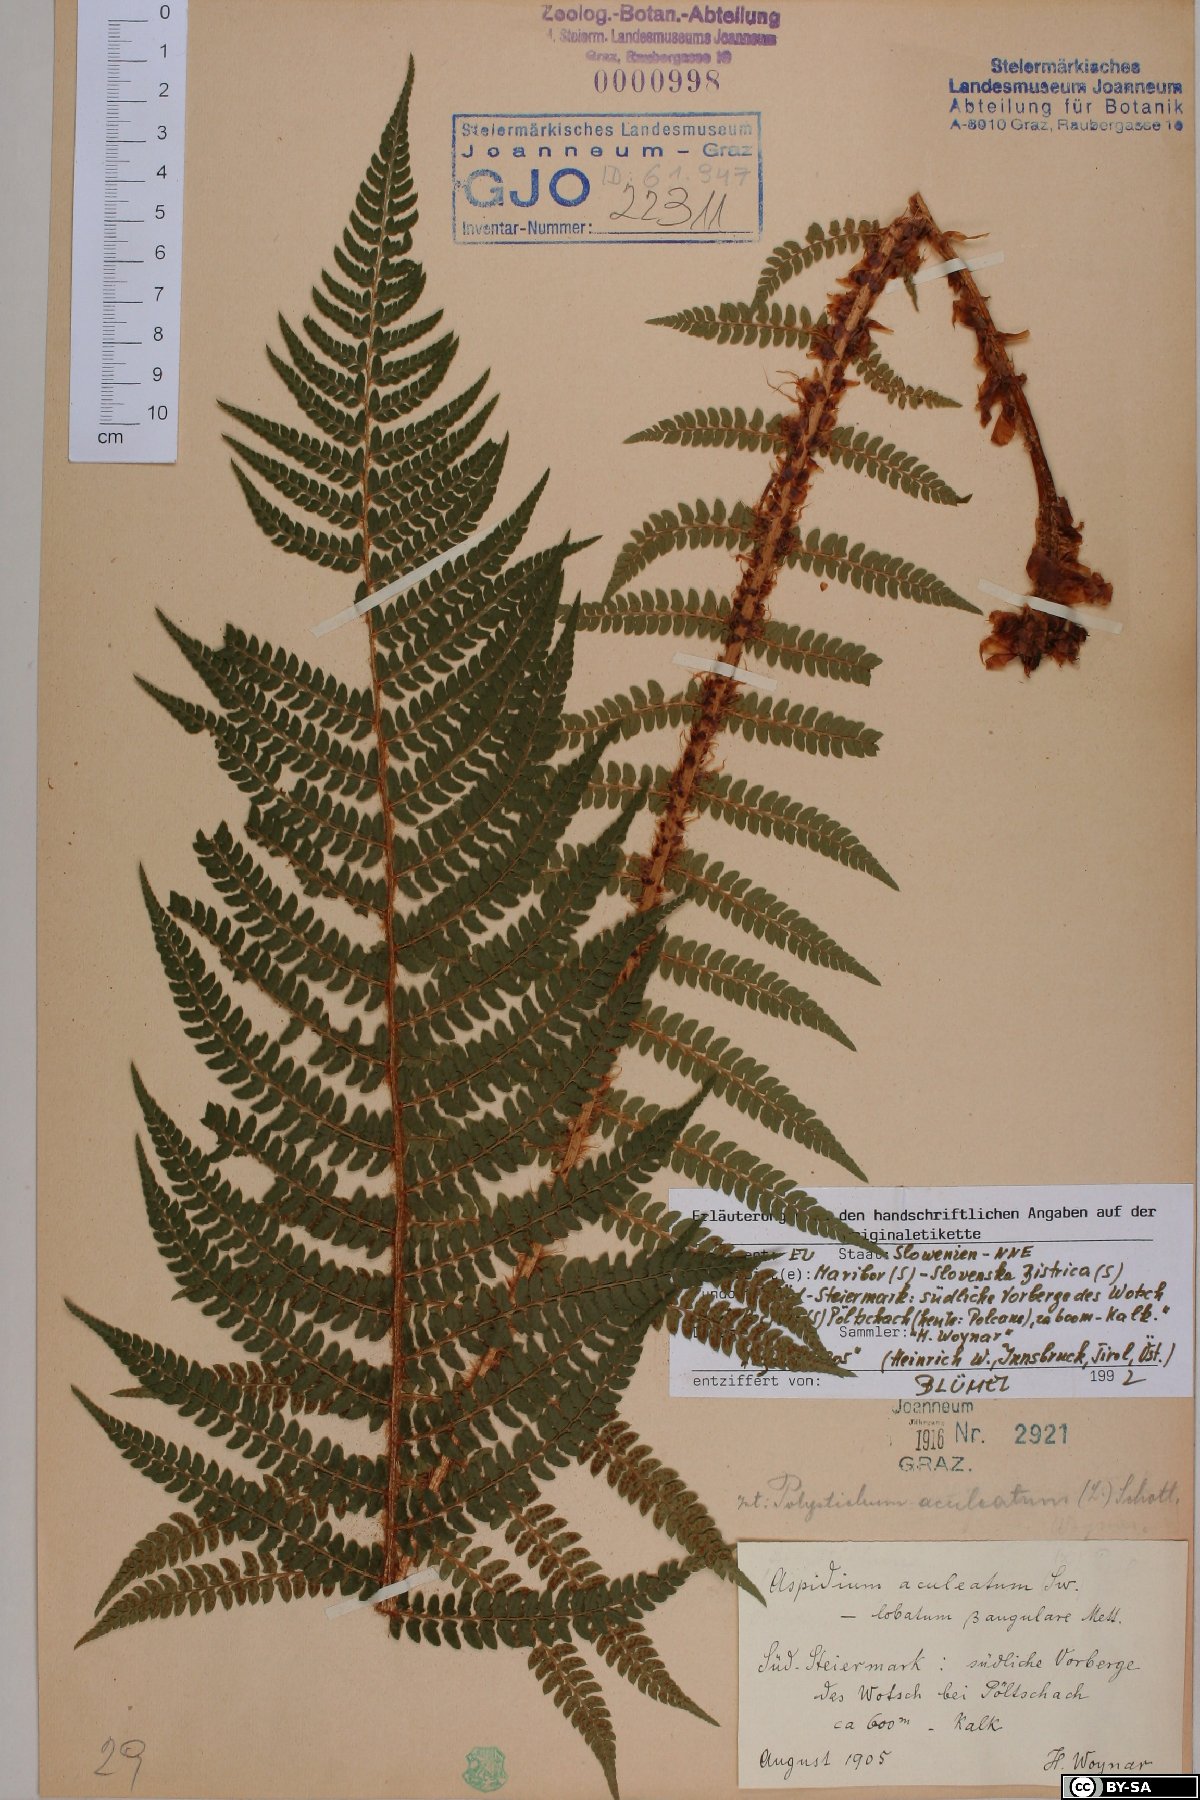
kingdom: Plantae
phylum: Tracheophyta
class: Polypodiopsida
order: Polypodiales
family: Dryopteridaceae
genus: Polystichum
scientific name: Polystichum aculeatum
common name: Hard shield-fern
